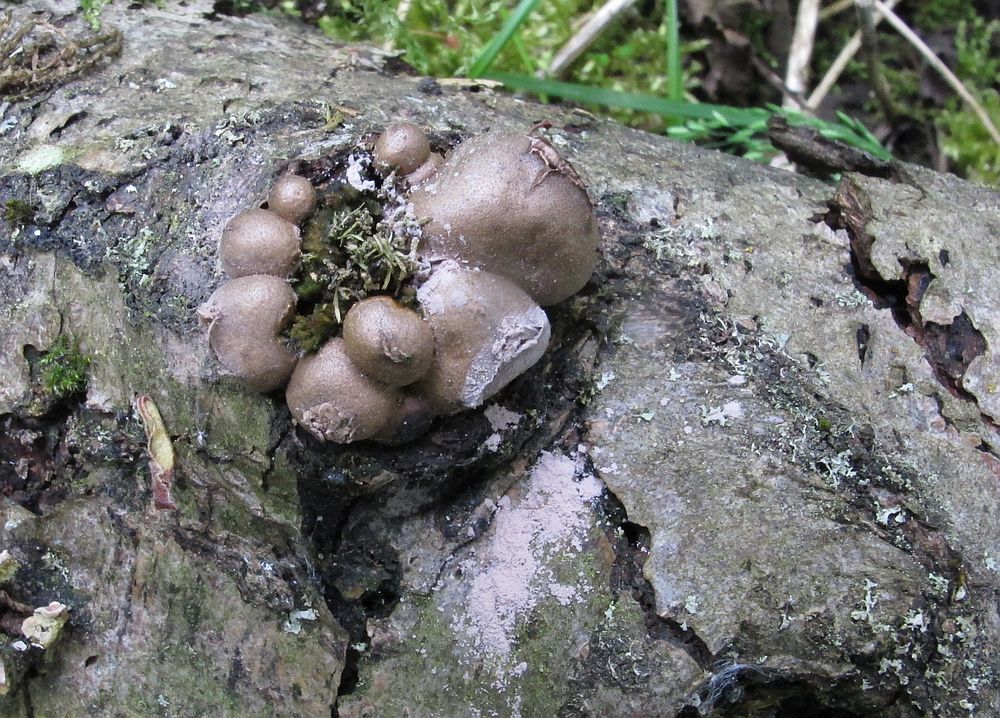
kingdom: Protozoa
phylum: Mycetozoa
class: Myxomycetes
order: Cribrariales
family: Tubiferaceae
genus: Lycogala
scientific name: Lycogala epidendrum
